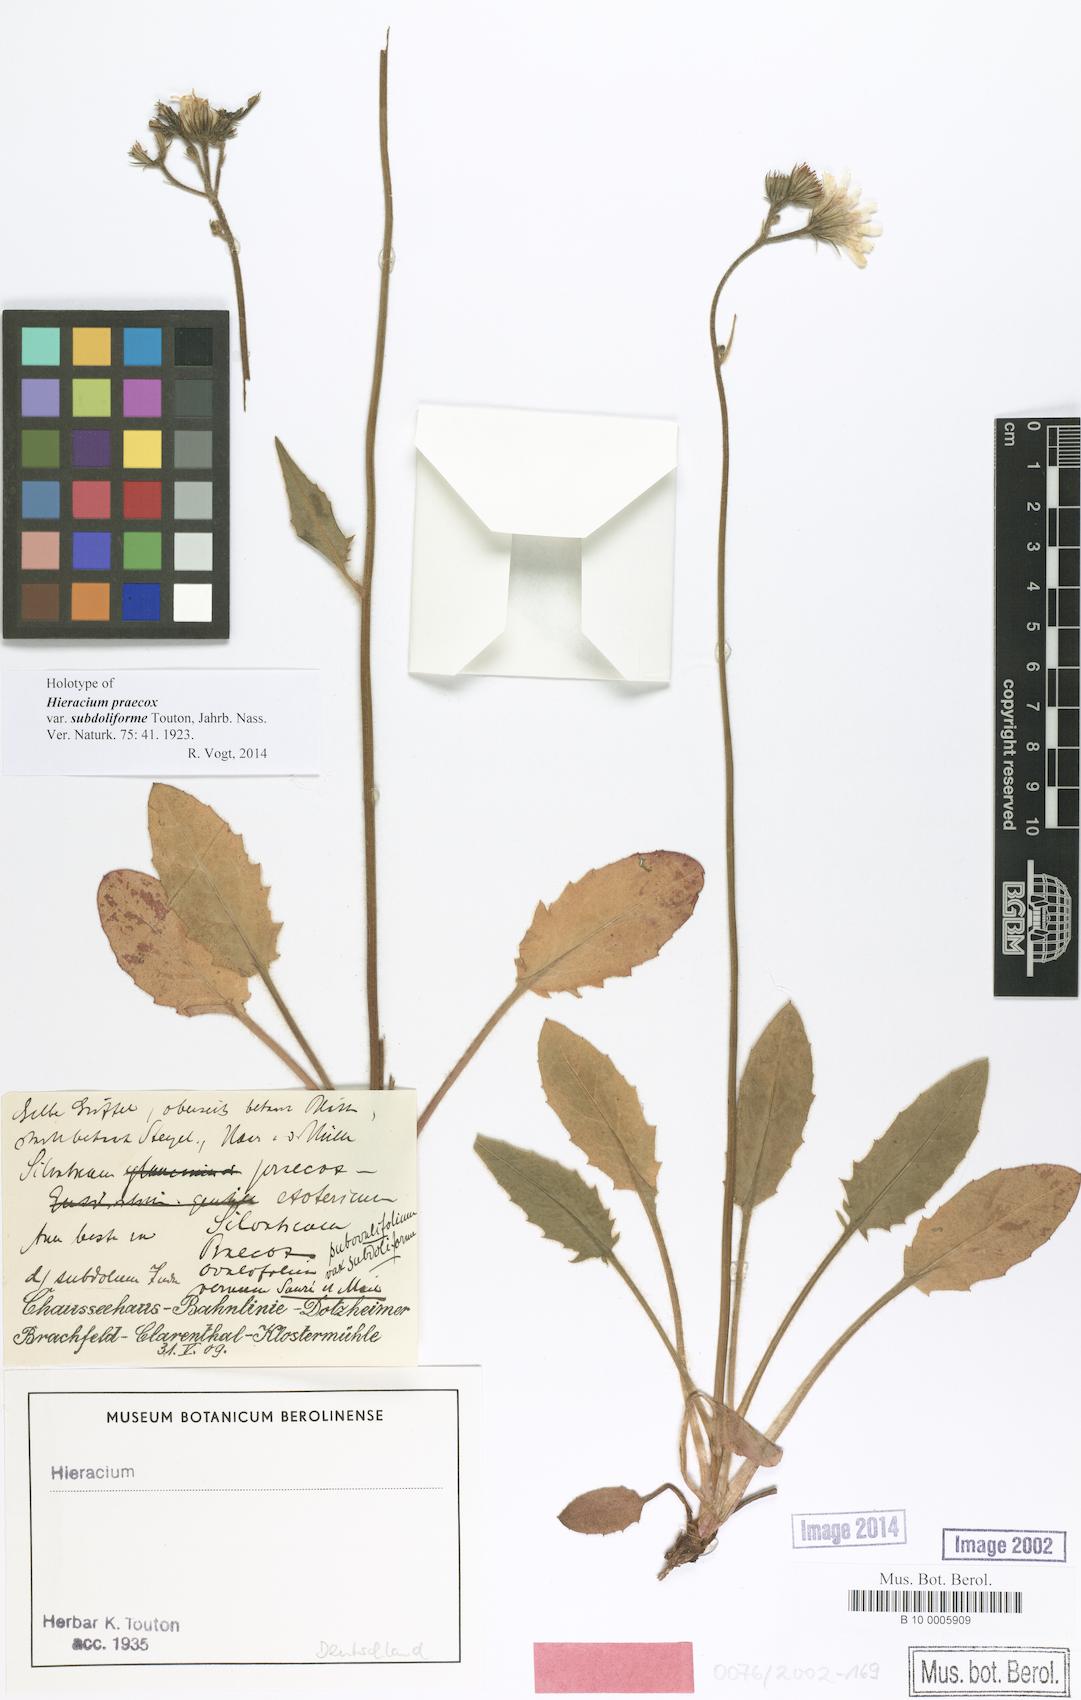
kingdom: Plantae
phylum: Tracheophyta
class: Magnoliopsida
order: Asterales
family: Asteraceae
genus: Hieracium
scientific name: Hieracium praecox
